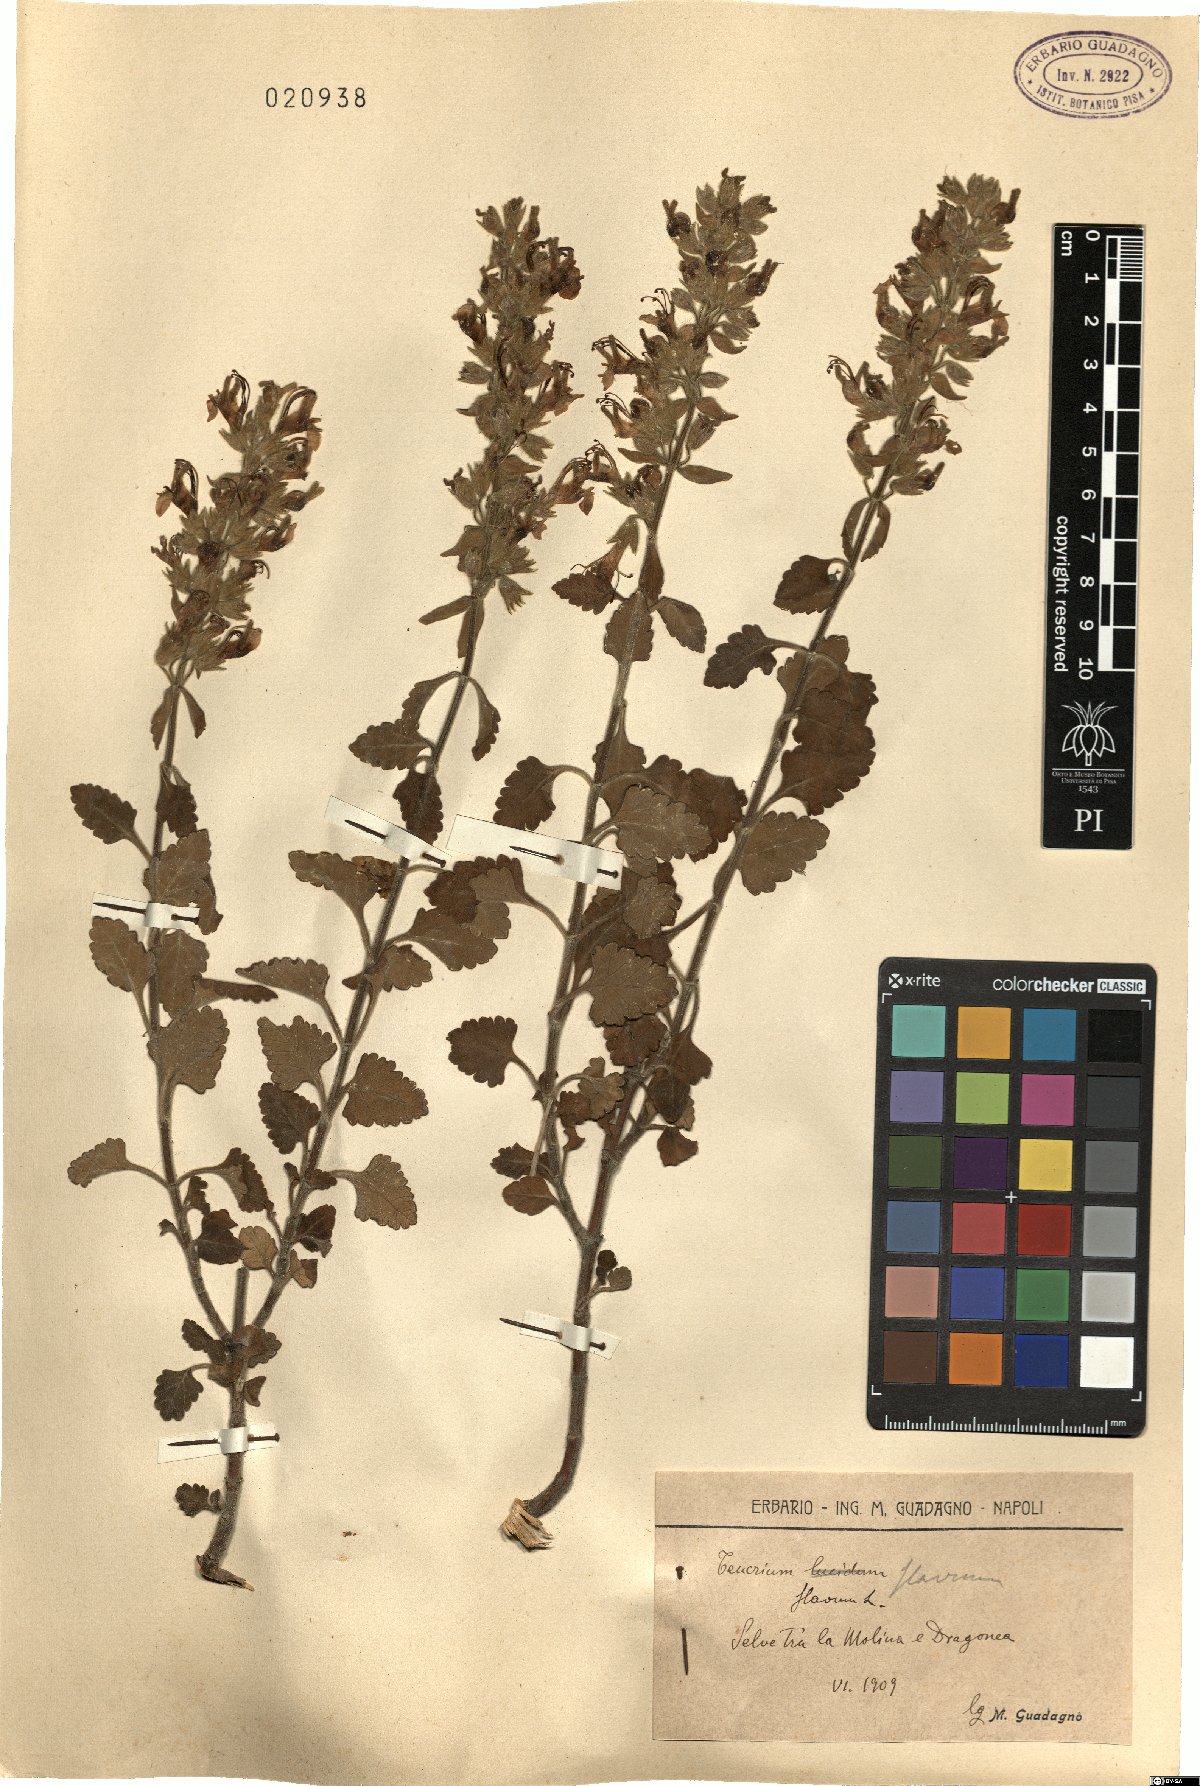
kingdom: Plantae
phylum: Tracheophyta
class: Magnoliopsida
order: Lamiales
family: Lamiaceae
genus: Teucrium
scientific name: Teucrium flavum
